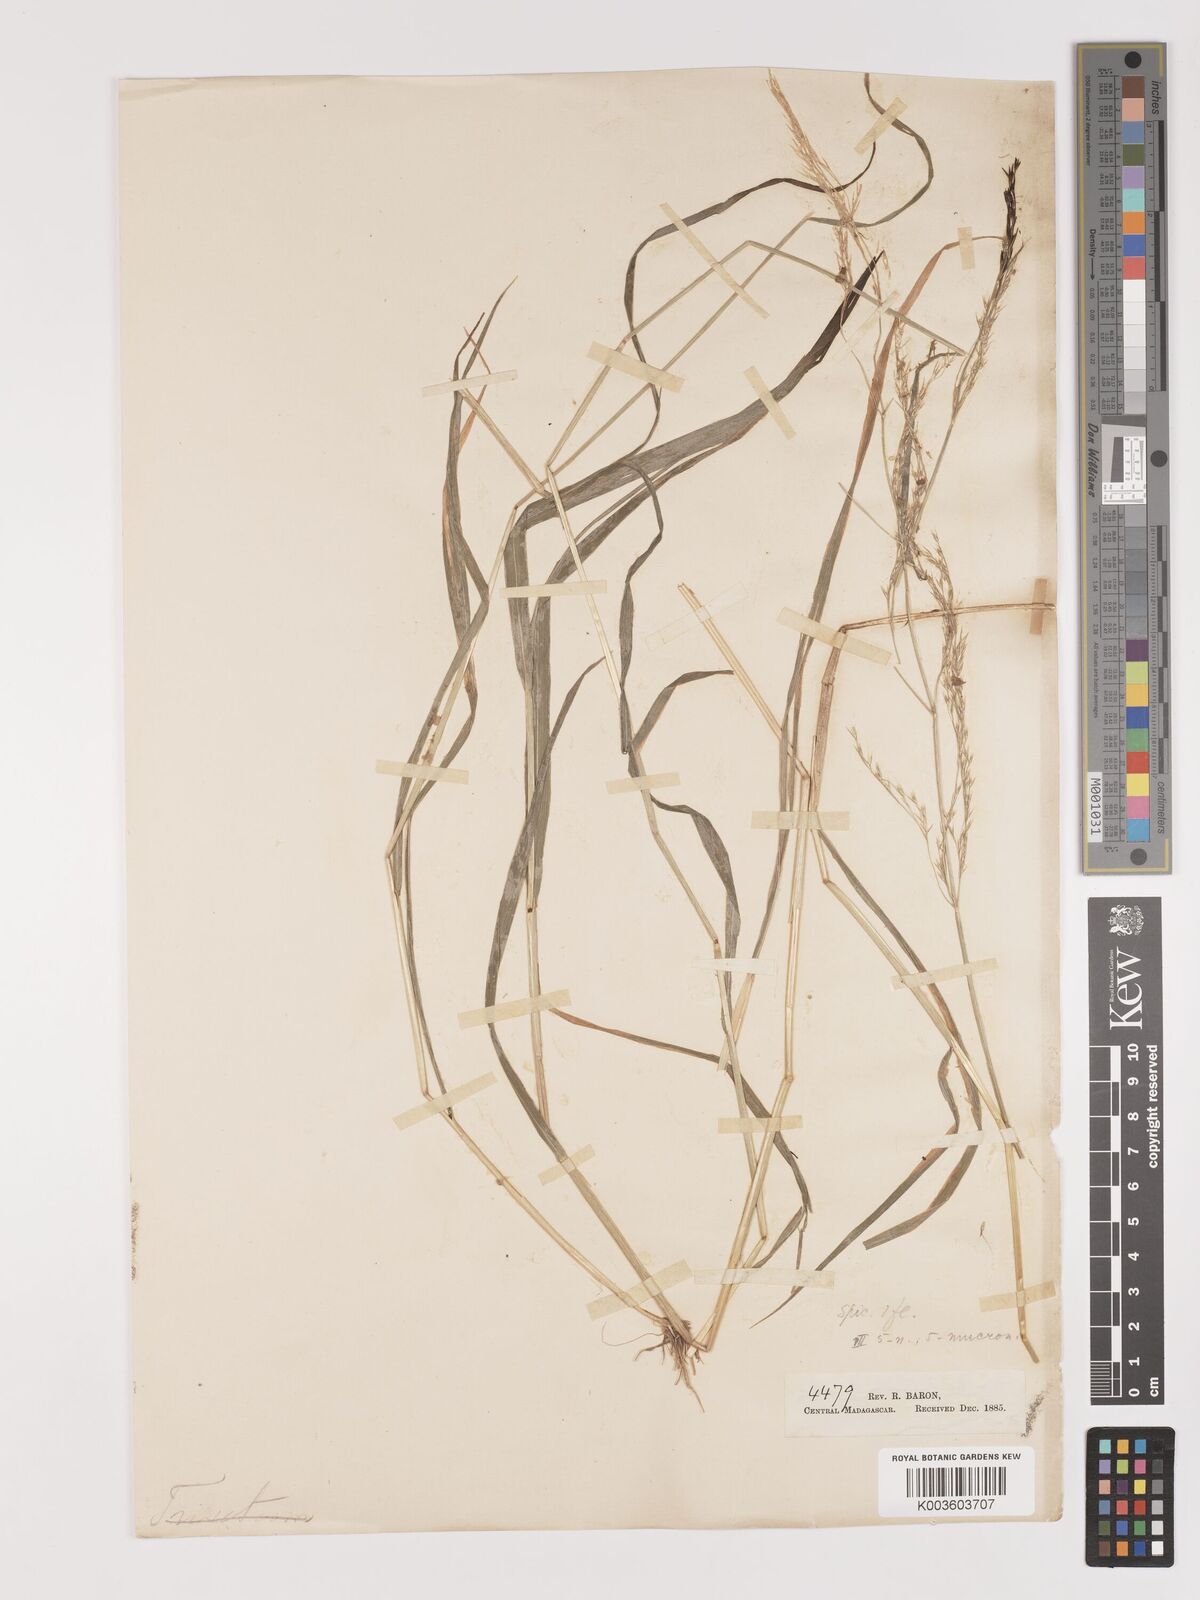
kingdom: Plantae
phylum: Tracheophyta
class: Liliopsida
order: Poales
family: Poaceae
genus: Agrostis
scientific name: Agrostis
